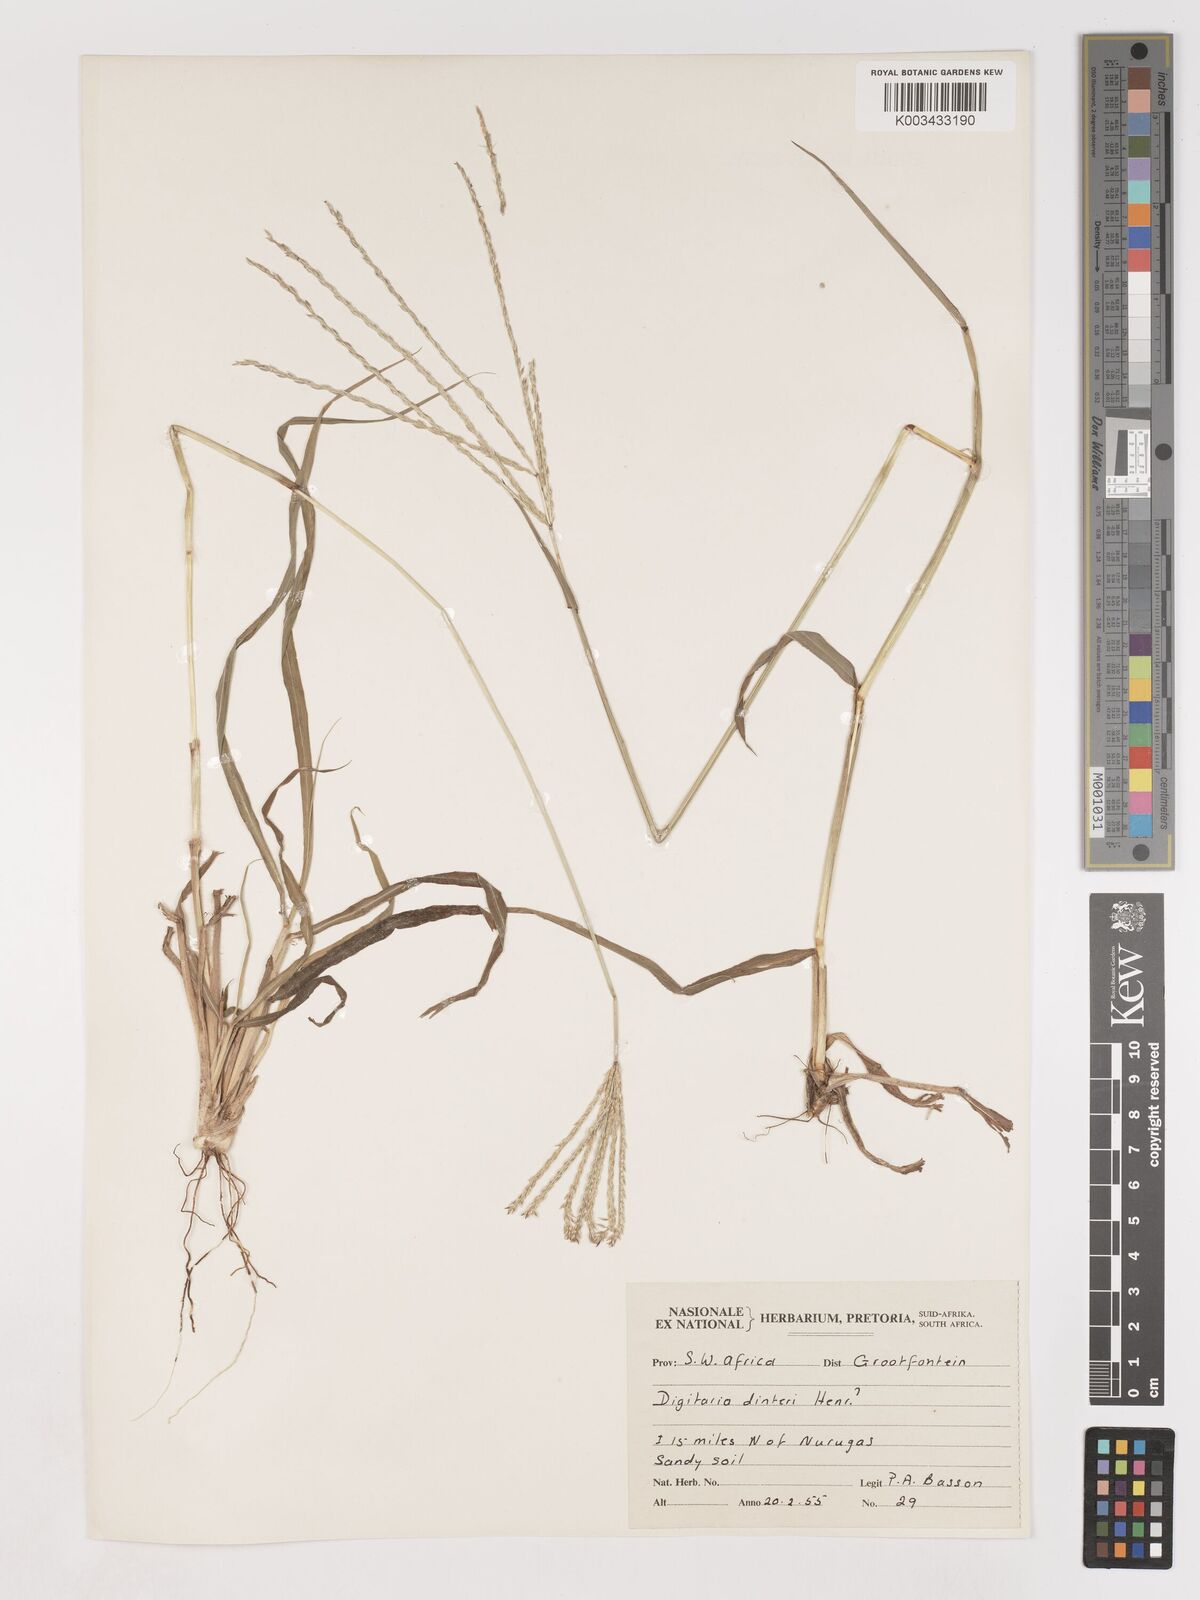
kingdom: Plantae
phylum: Tracheophyta
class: Liliopsida
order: Poales
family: Poaceae
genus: Digitaria
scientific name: Digitaria eriantha
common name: Digitgrass
